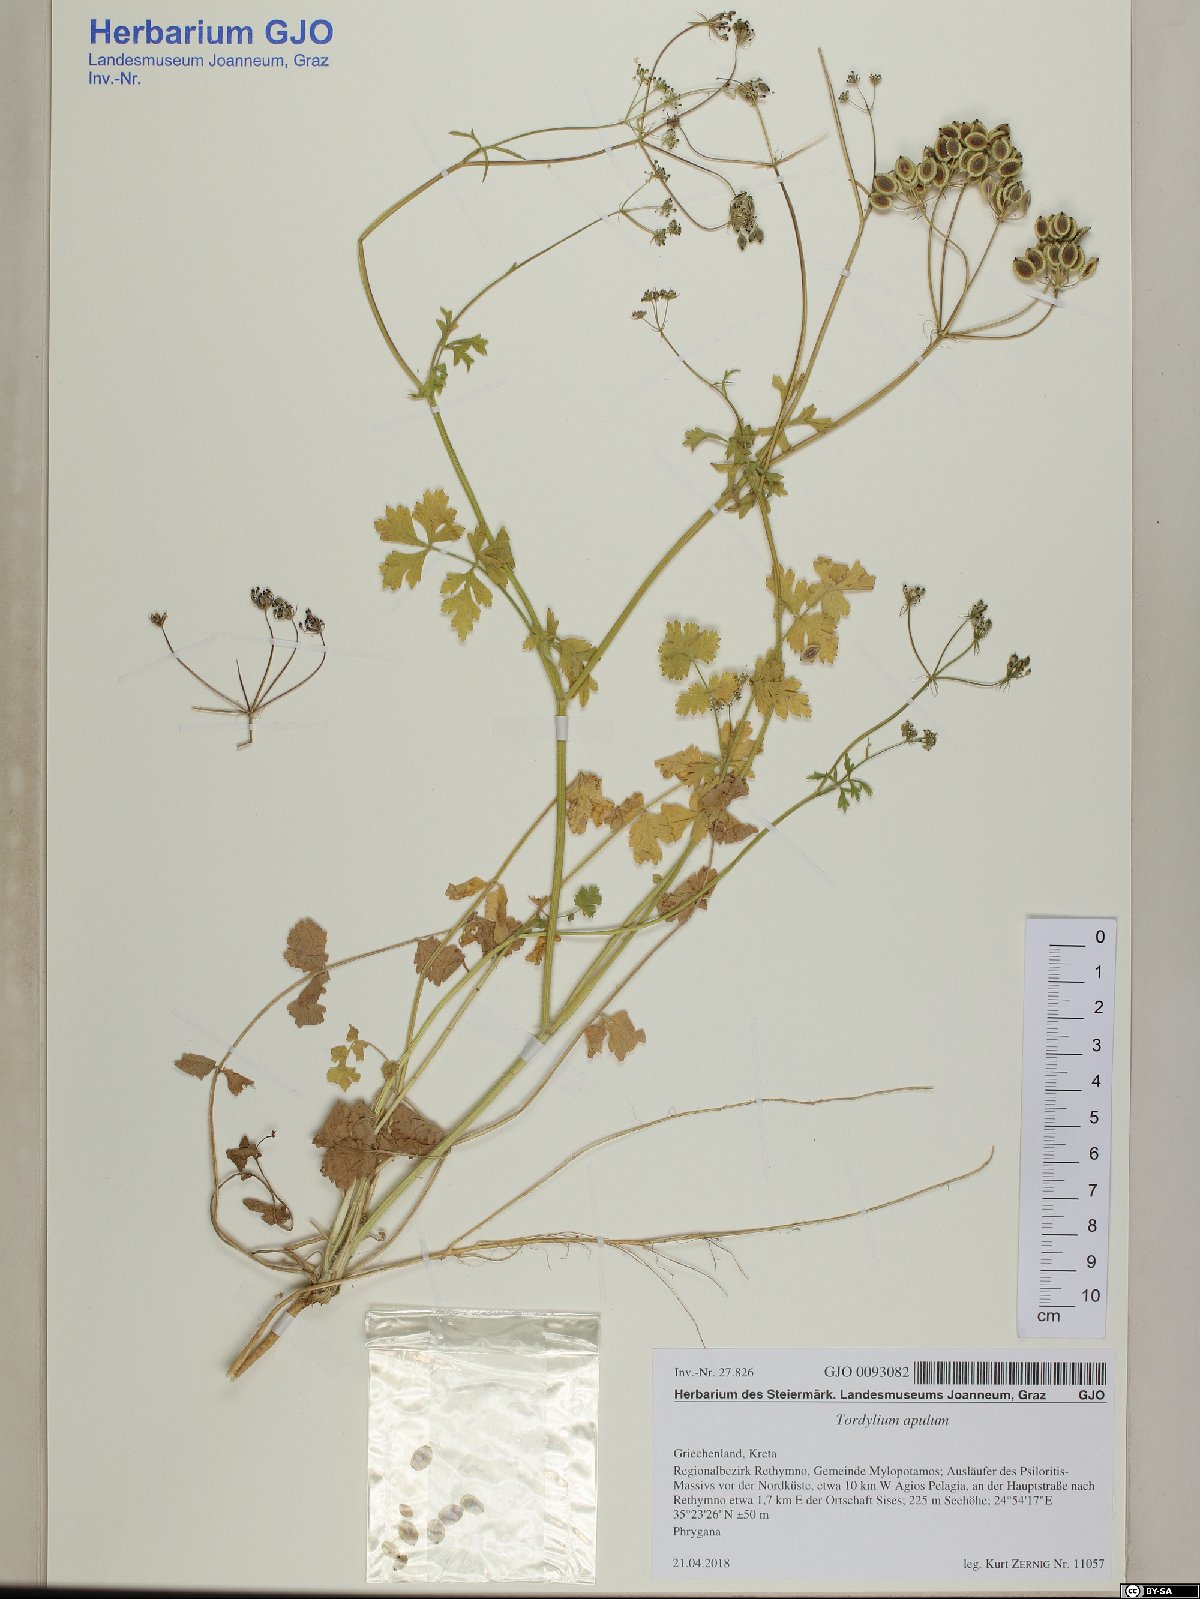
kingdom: Plantae
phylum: Tracheophyta
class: Magnoliopsida
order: Apiales
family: Apiaceae
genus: Tordylium
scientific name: Tordylium apulum
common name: Mediterranean hartwort
